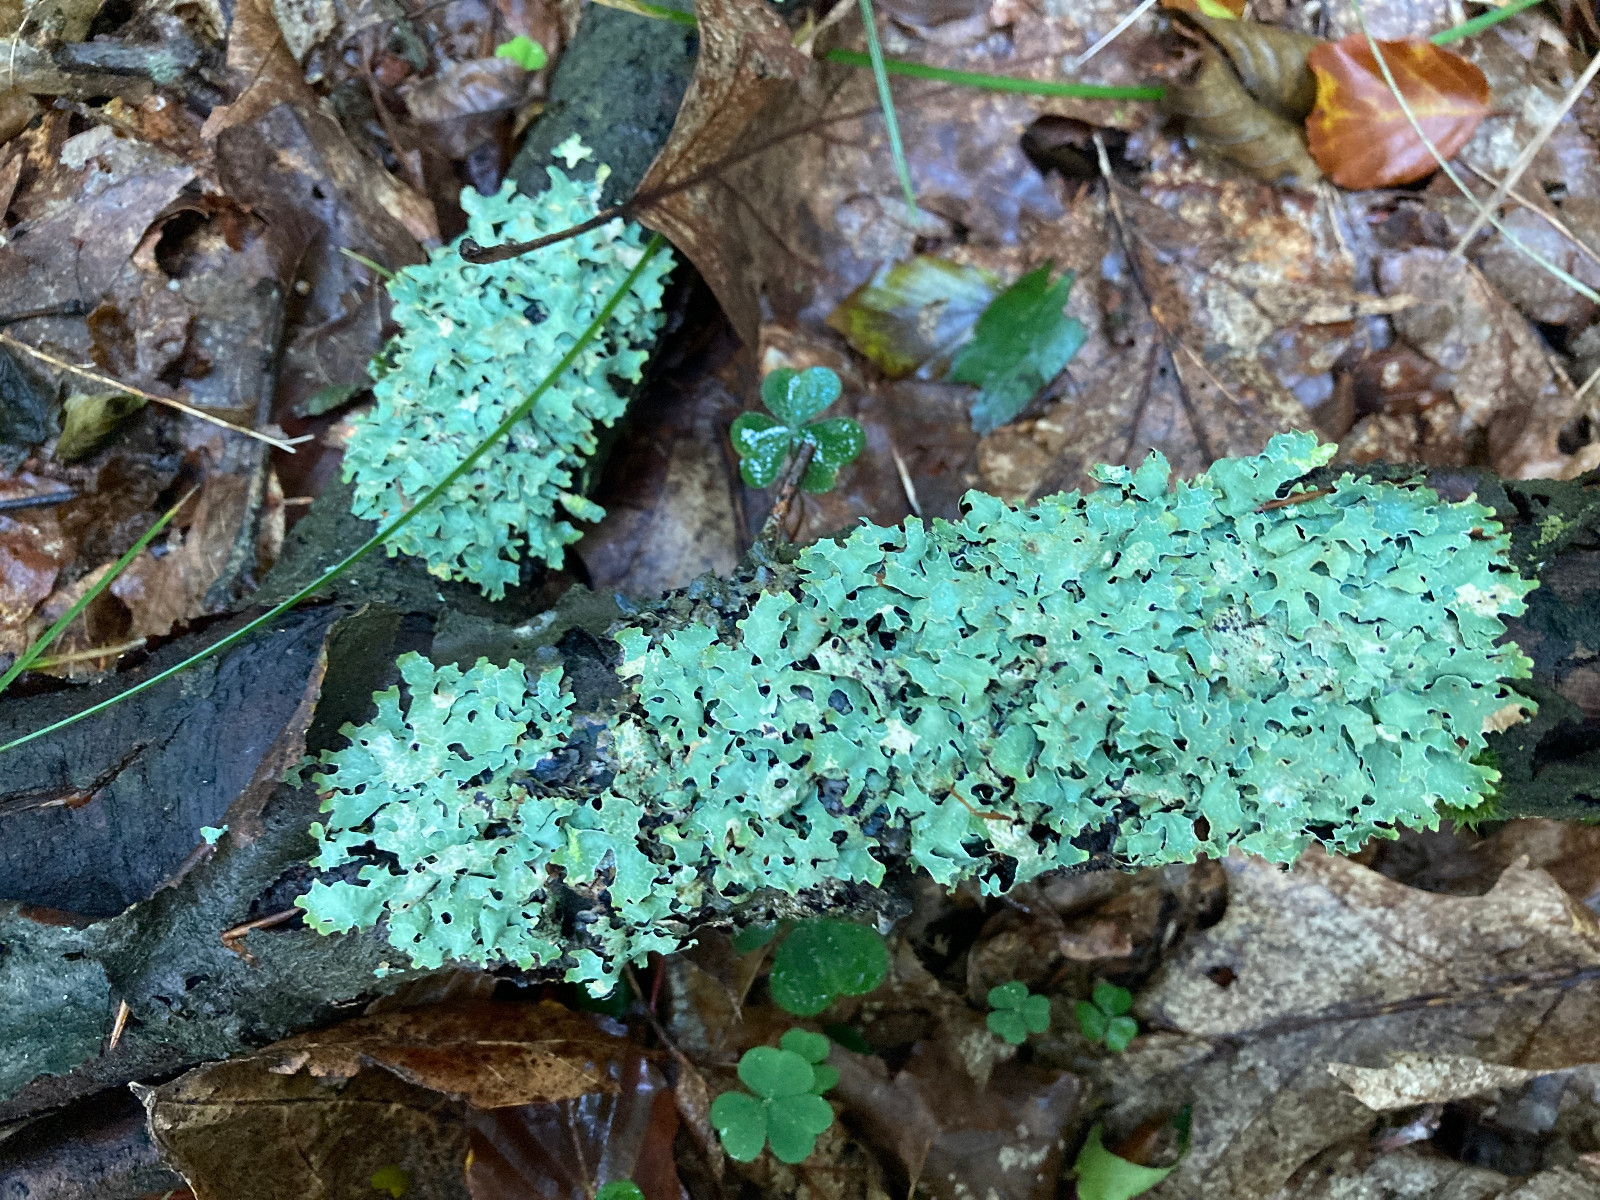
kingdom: Fungi
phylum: Ascomycota
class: Lecanoromycetes
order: Lecanorales
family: Parmeliaceae
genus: Parmelia
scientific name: Parmelia sulcata
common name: rynket skållav
